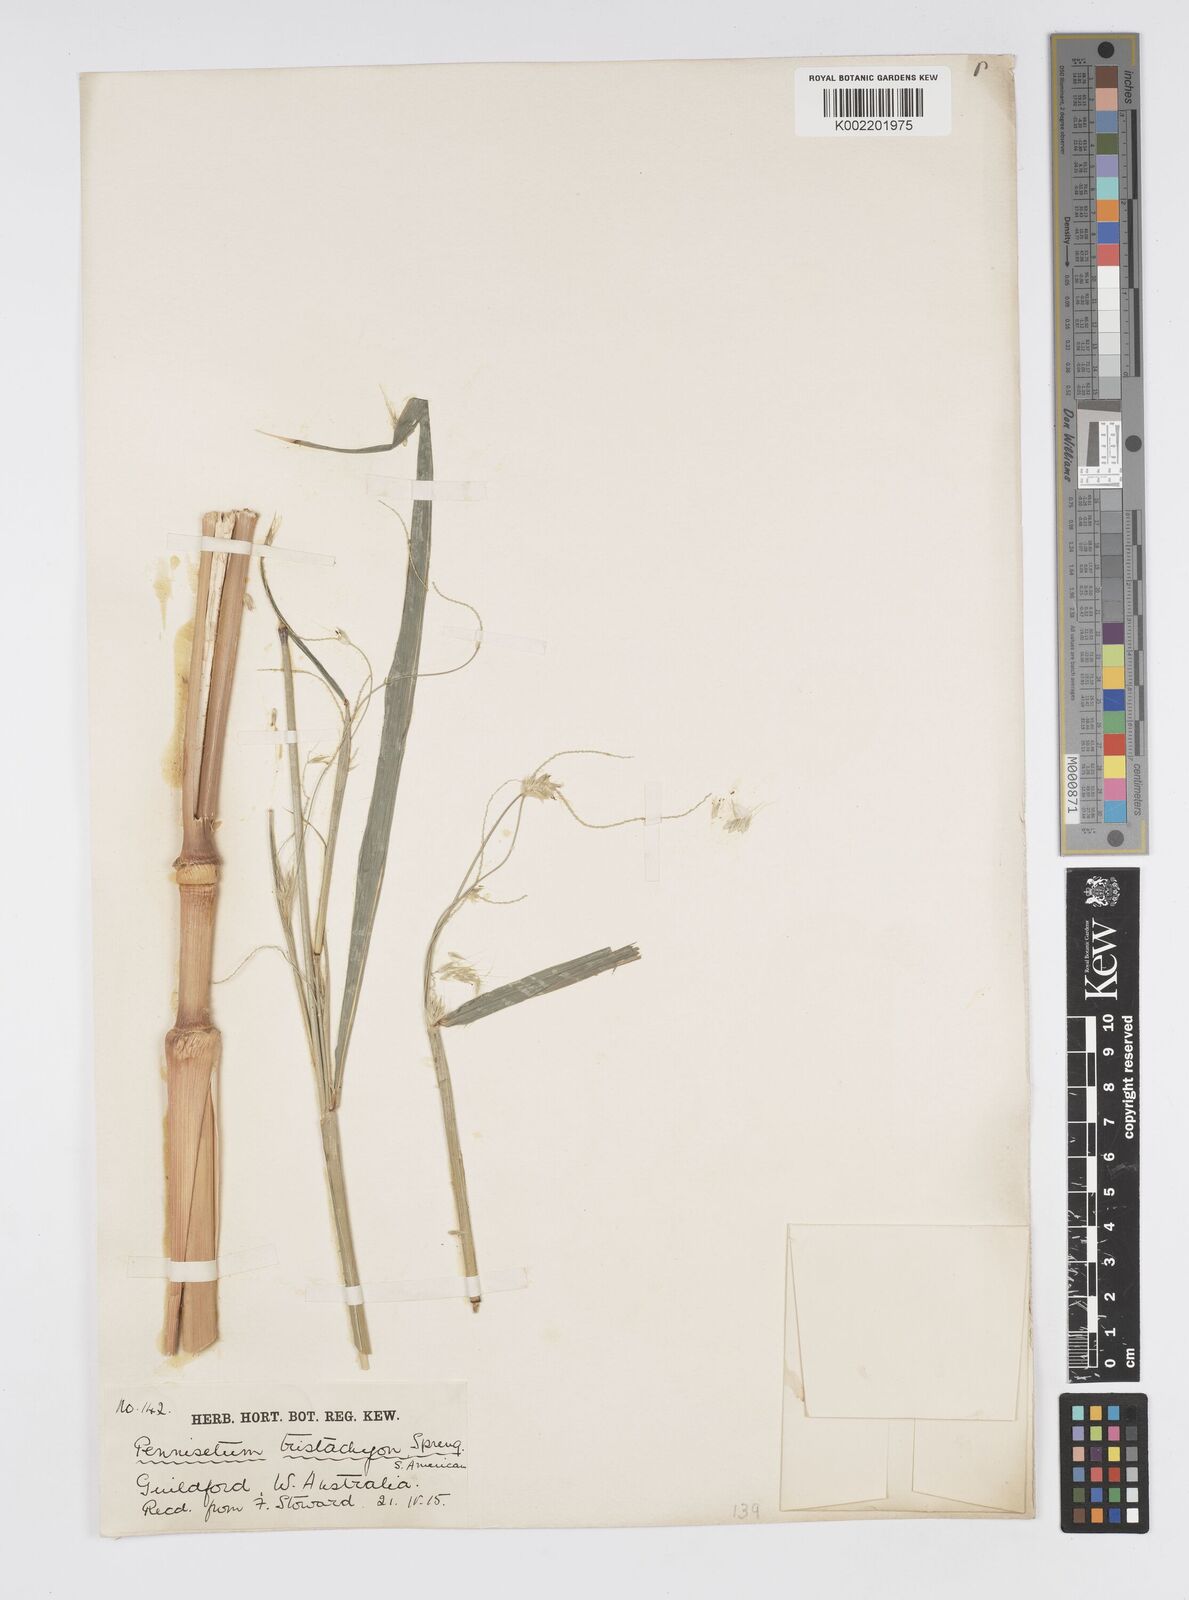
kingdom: Plantae
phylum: Tracheophyta
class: Liliopsida
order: Poales
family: Poaceae
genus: Cenchrus
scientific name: Cenchrus tristachyus
